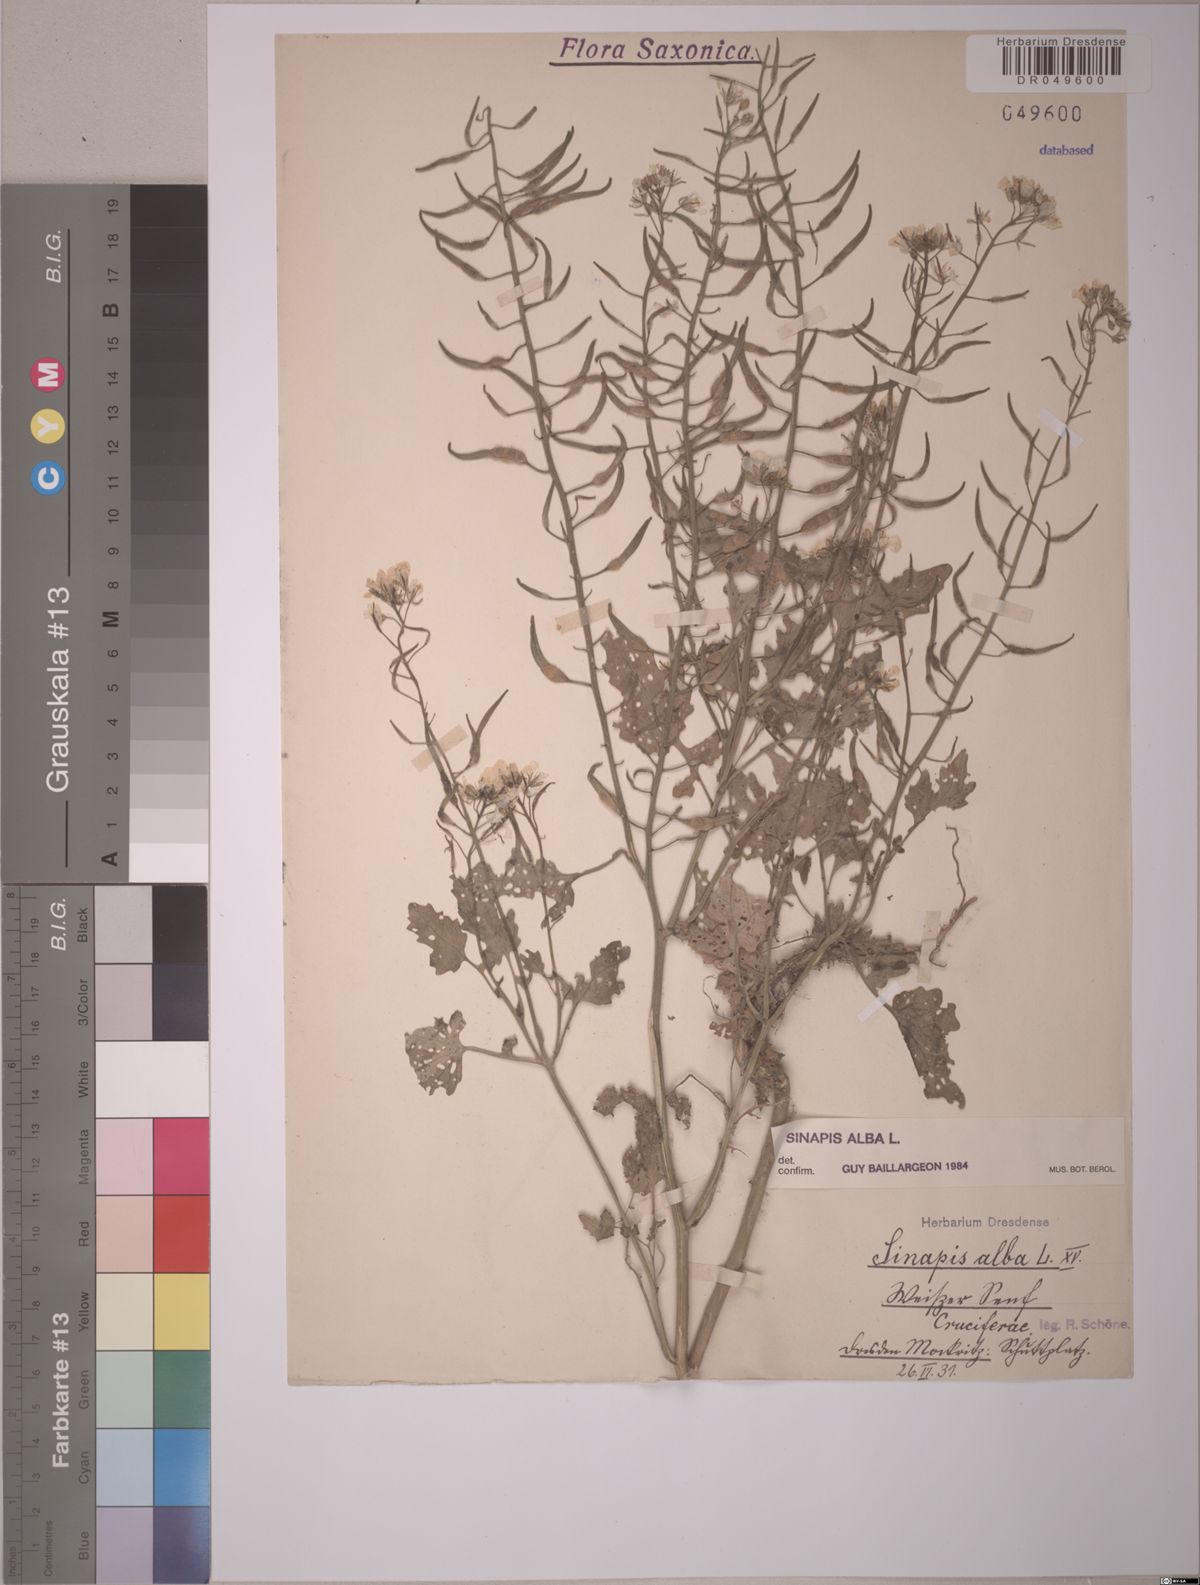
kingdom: Plantae
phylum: Tracheophyta
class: Magnoliopsida
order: Brassicales
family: Brassicaceae
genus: Sinapis
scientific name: Sinapis alba
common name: White mustard
